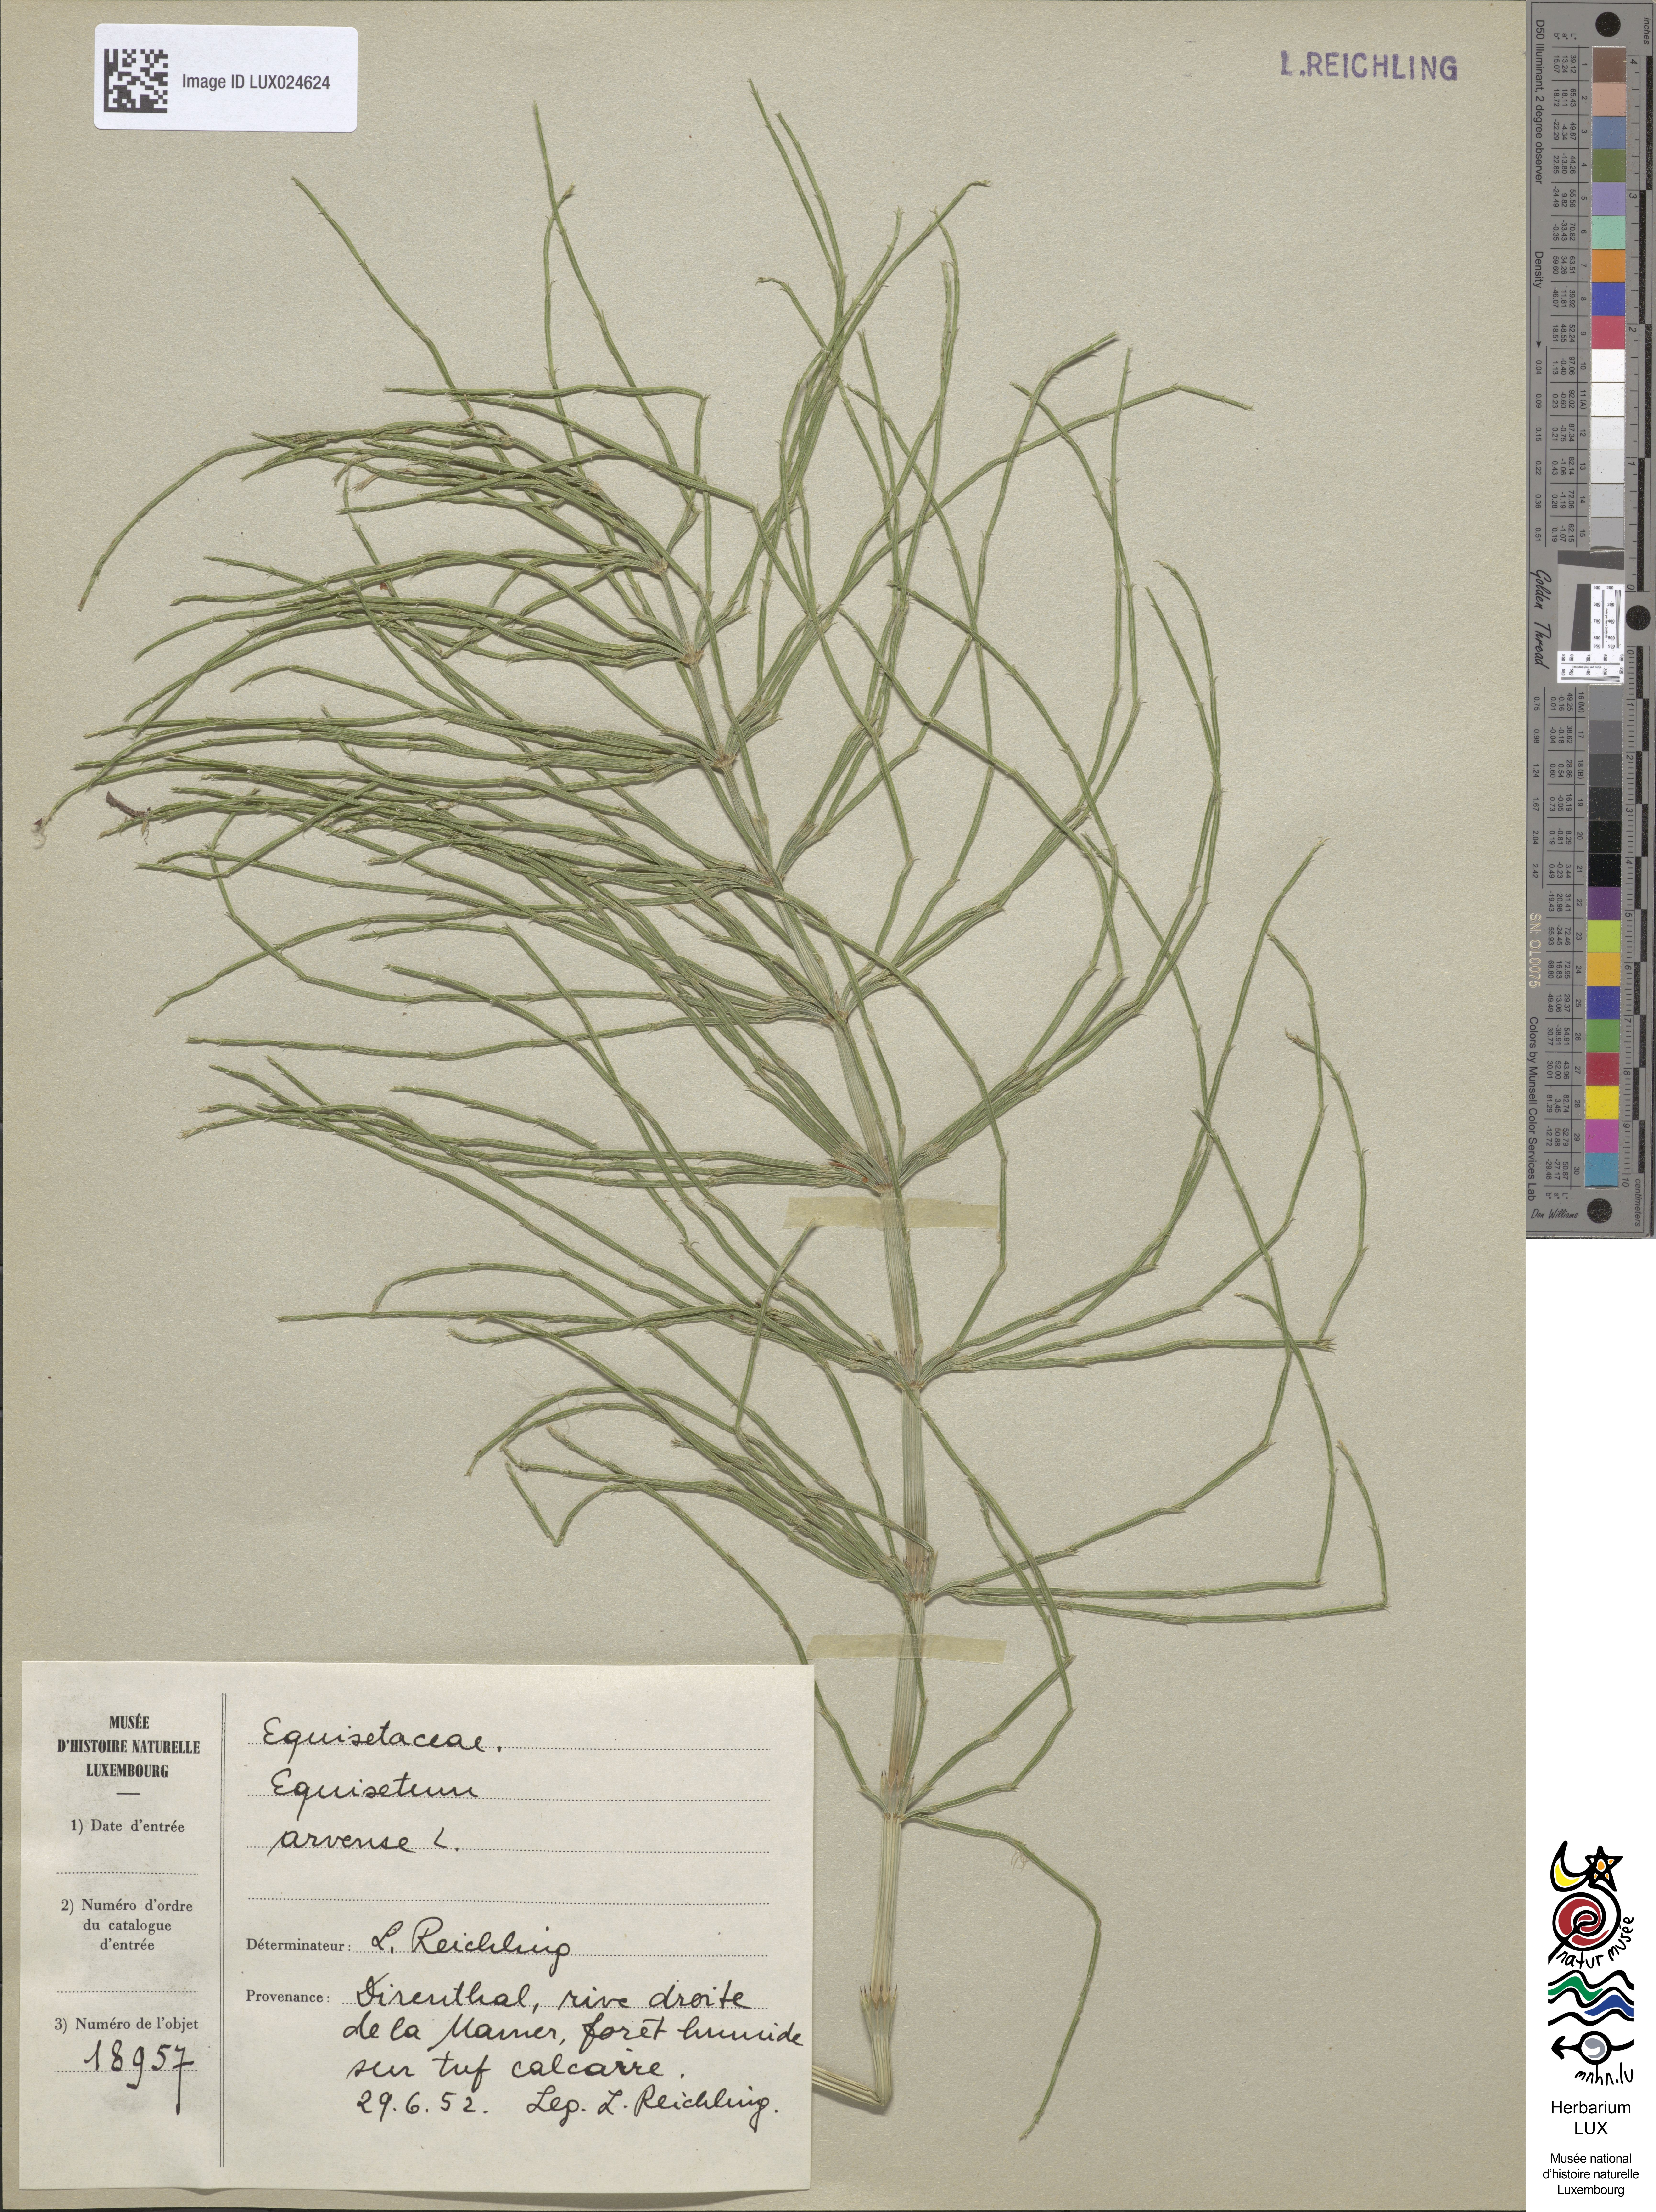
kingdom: Plantae
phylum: Tracheophyta
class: Polypodiopsida
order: Equisetales
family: Equisetaceae
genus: Equisetum
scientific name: Equisetum arvense
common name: Field horsetail
